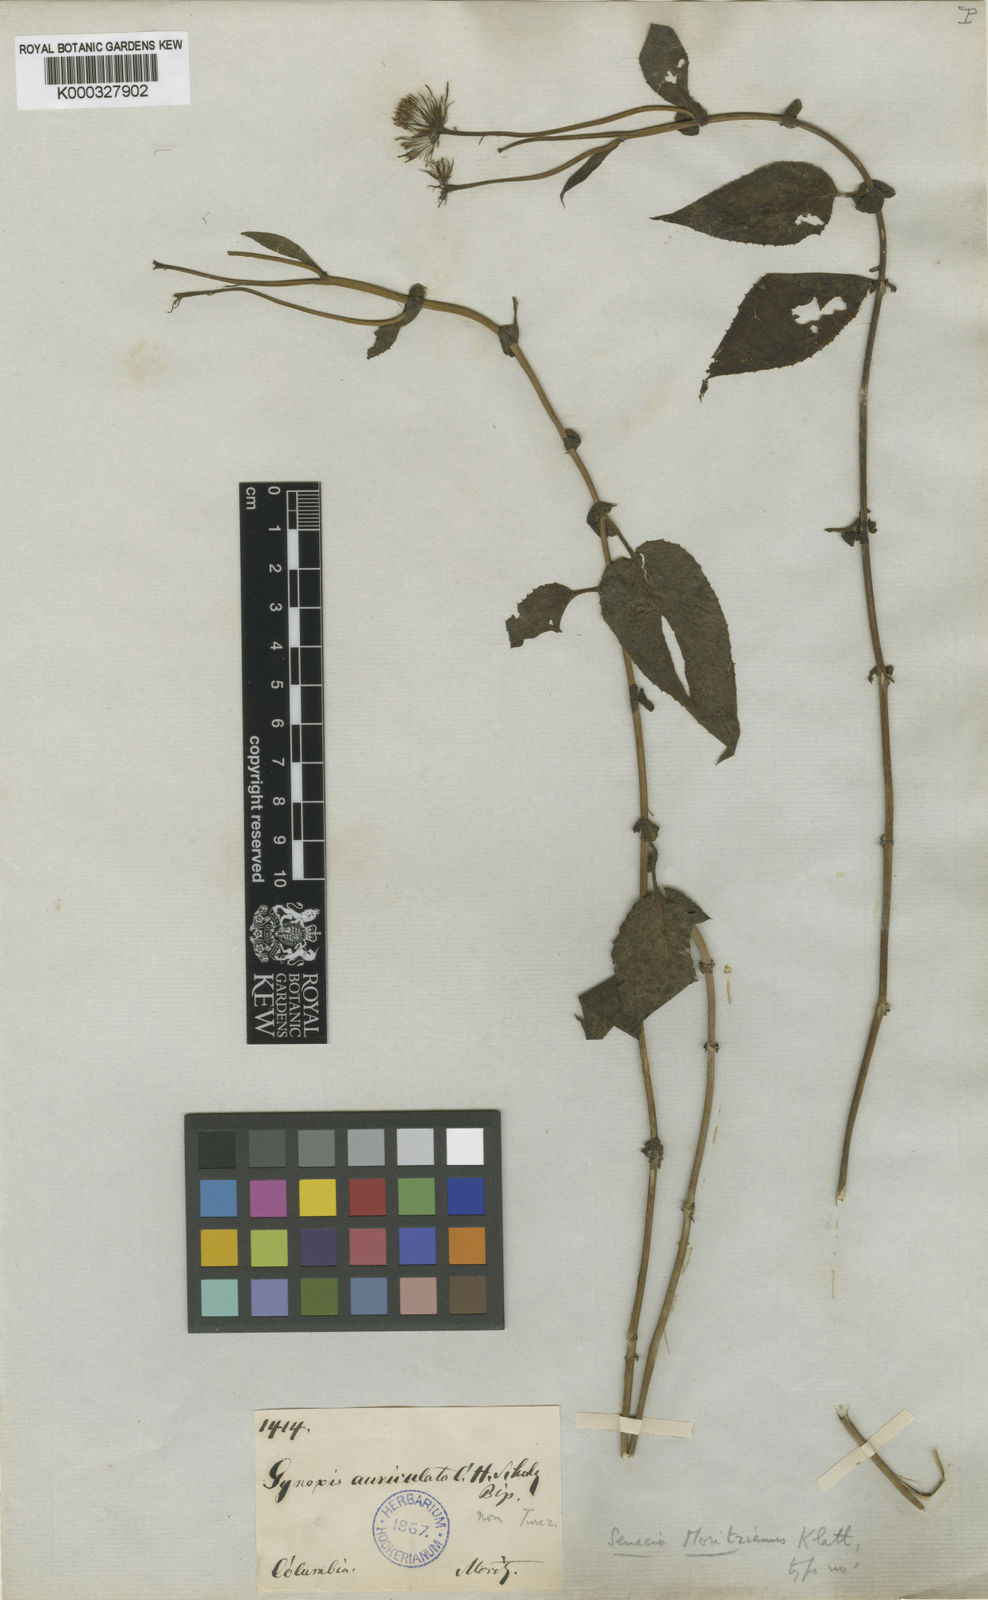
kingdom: Plantae
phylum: Tracheophyta
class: Magnoliopsida
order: Asterales
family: Asteraceae
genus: Pseudogynoxys
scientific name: Pseudogynoxys bogotensis
